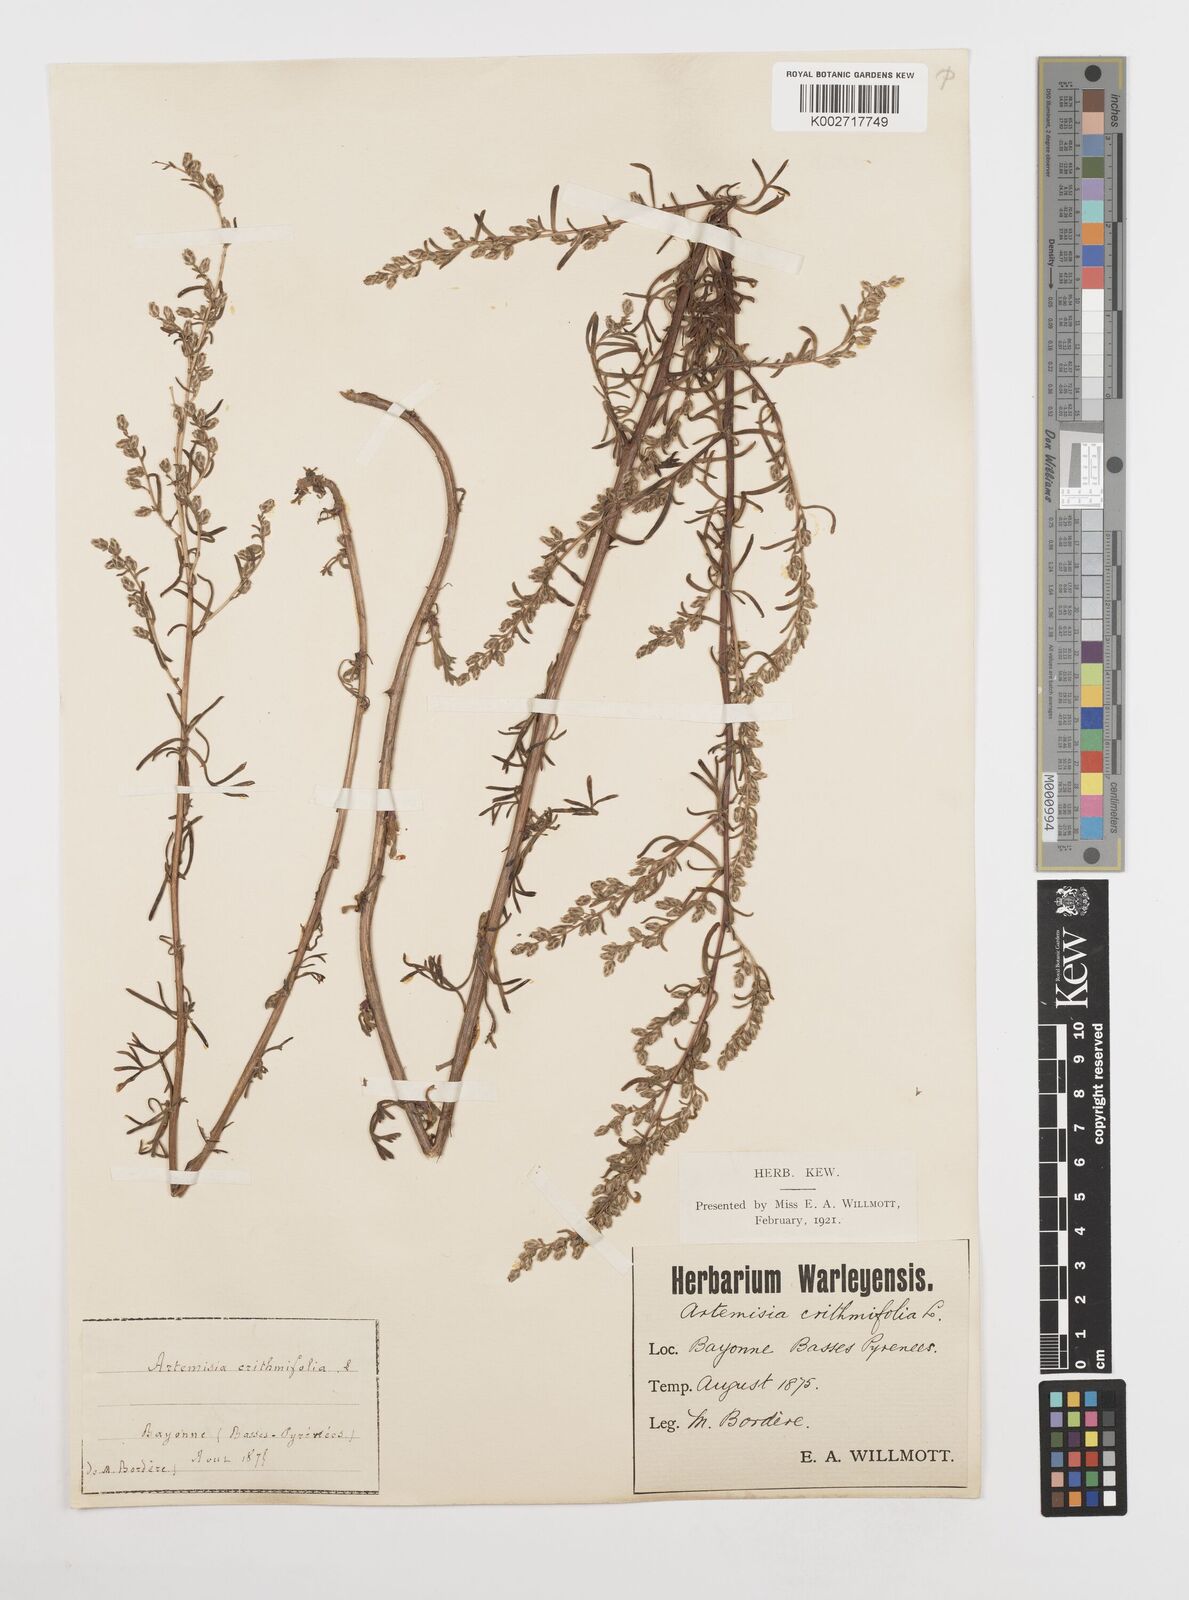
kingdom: Plantae
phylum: Tracheophyta
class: Magnoliopsida
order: Asterales
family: Asteraceae
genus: Artemisia
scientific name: Artemisia campestris
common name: Field wormwood
